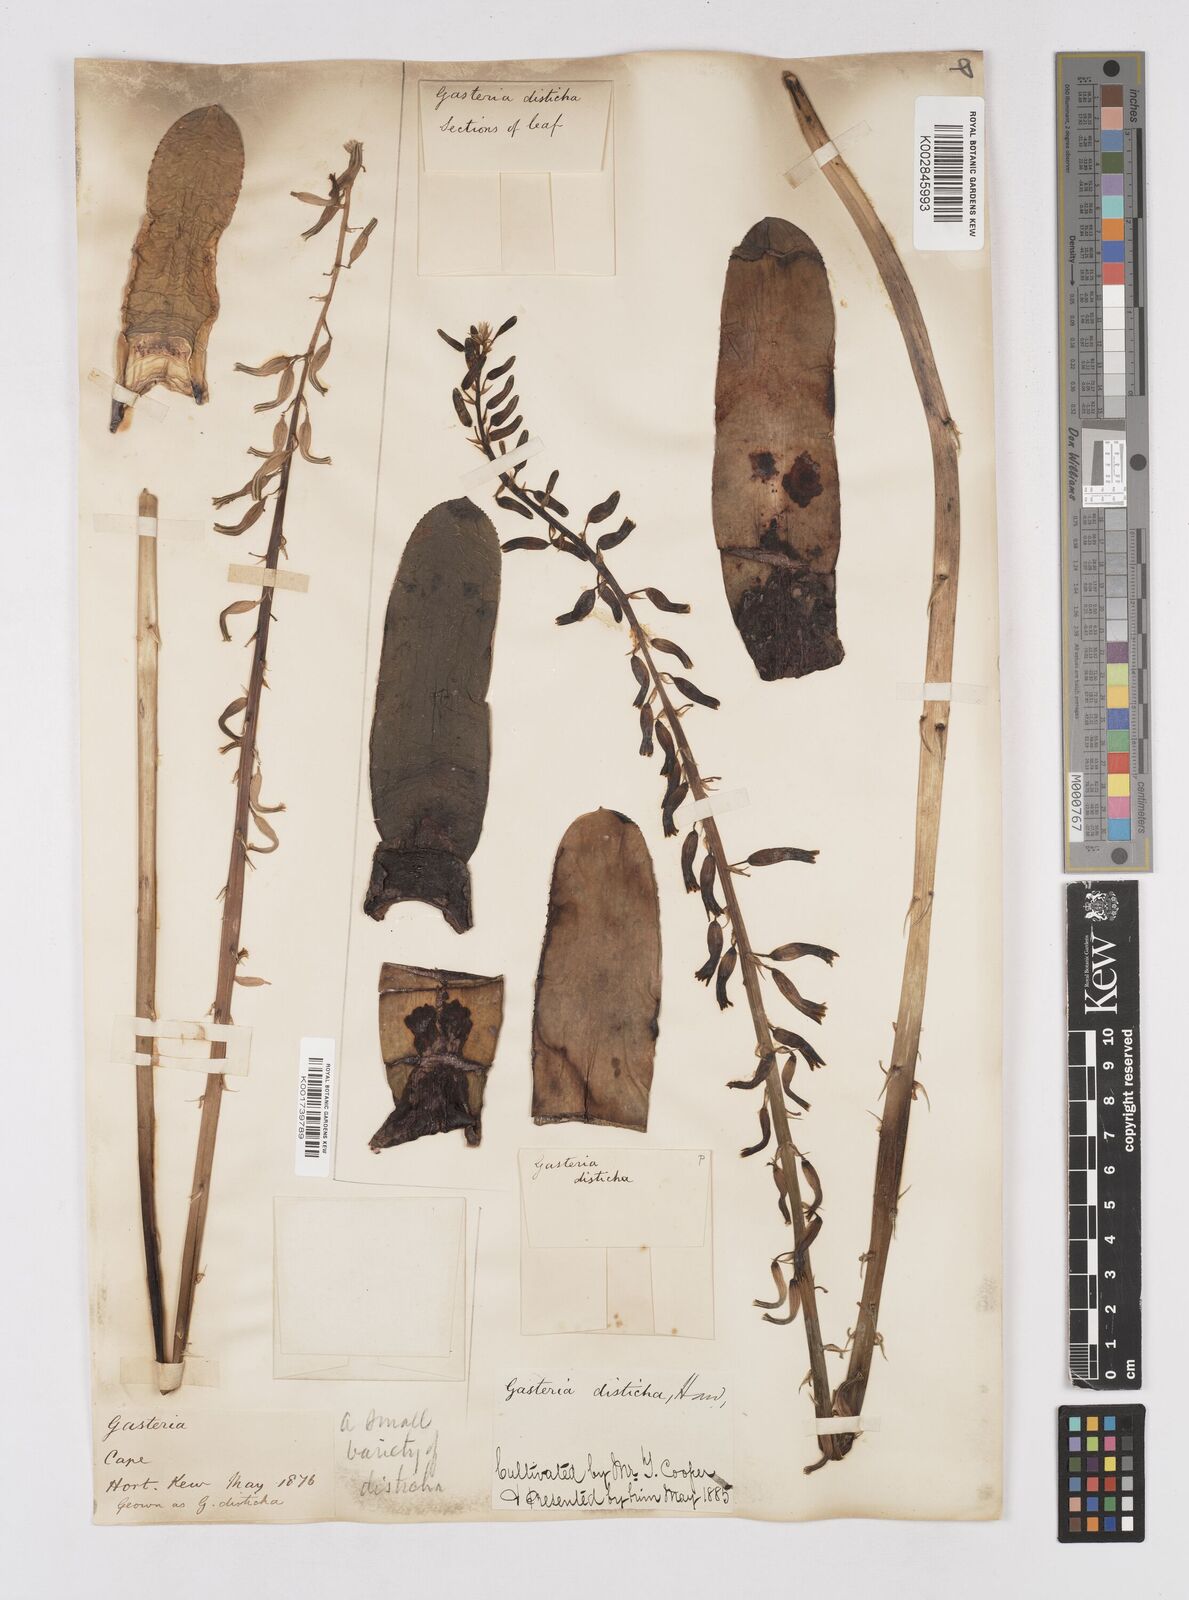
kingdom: Plantae
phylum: Tracheophyta
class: Liliopsida
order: Asparagales
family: Asphodelaceae
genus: Gasteria
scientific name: Gasteria lingua
